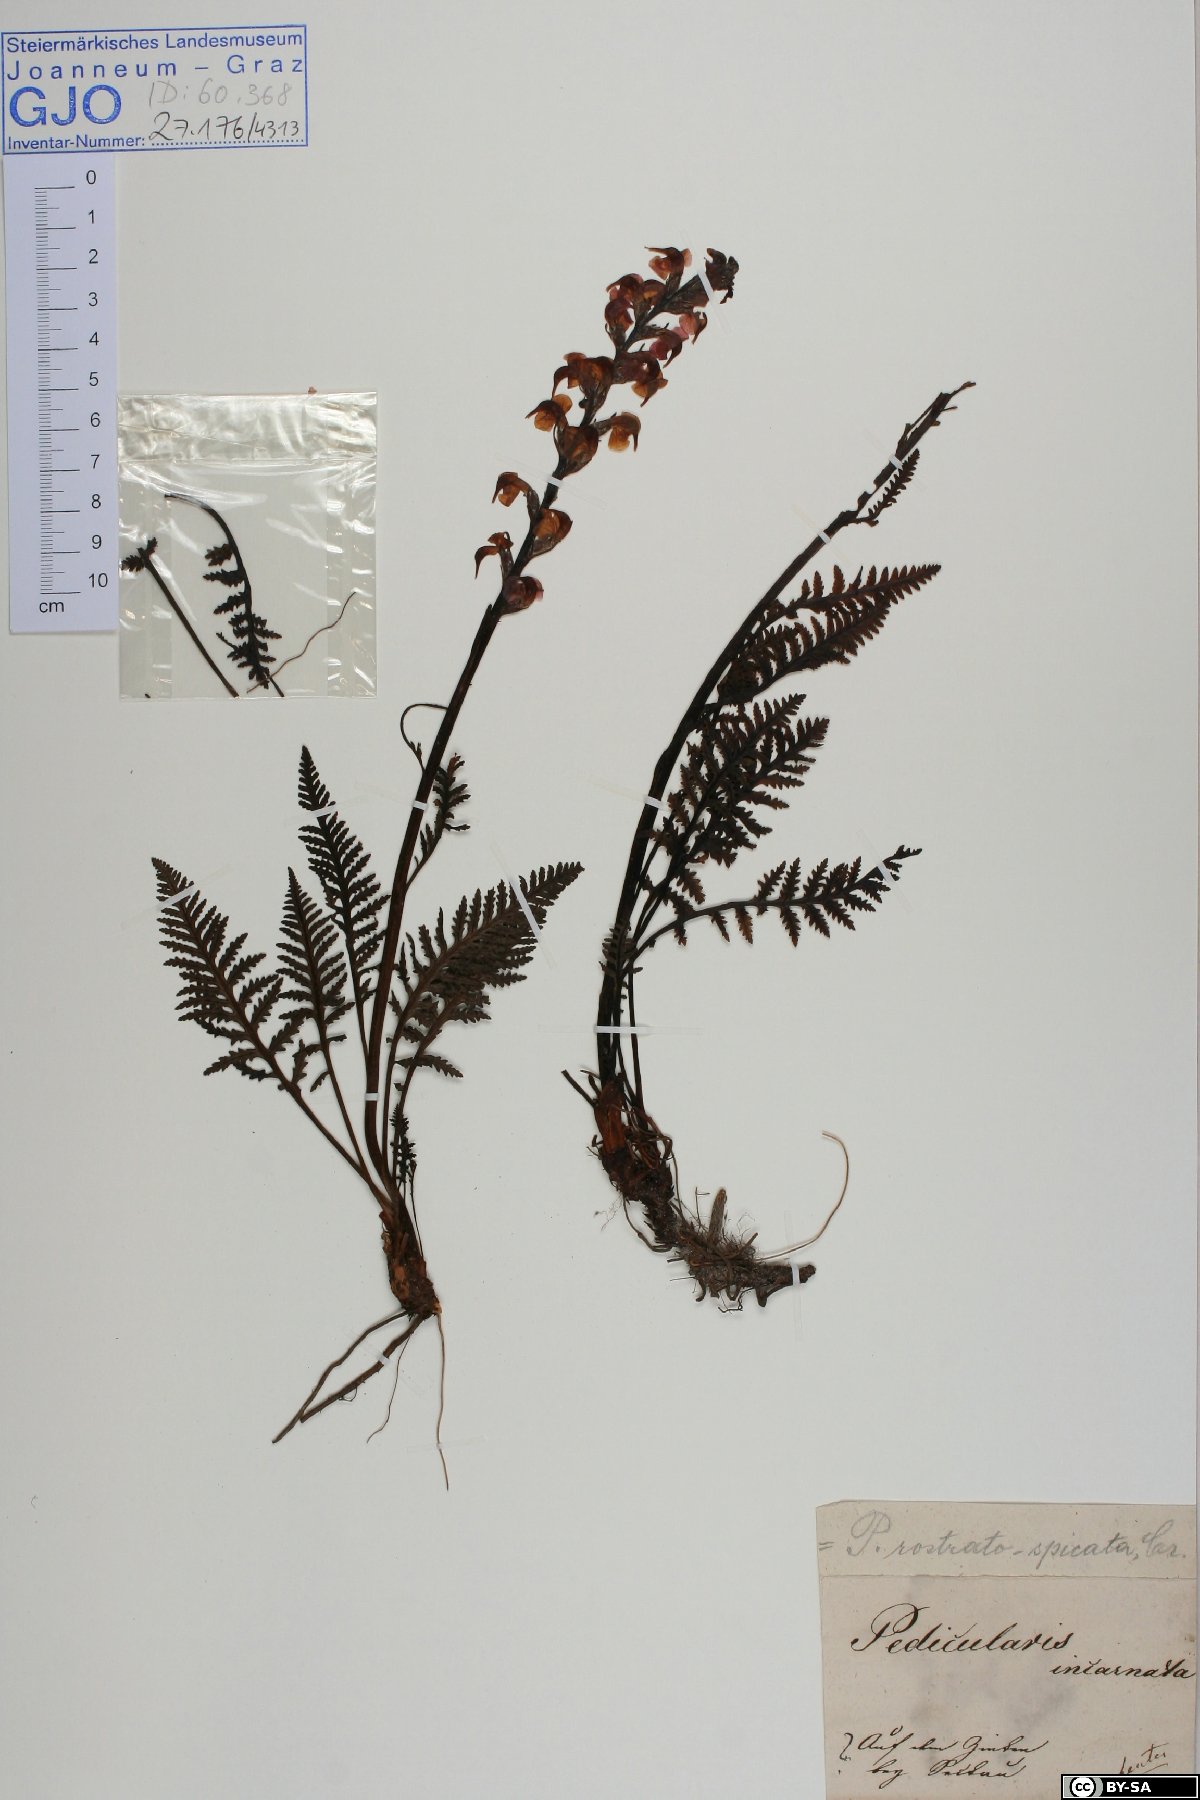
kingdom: Plantae
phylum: Tracheophyta
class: Magnoliopsida
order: Lamiales
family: Orobanchaceae
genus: Pedicularis
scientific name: Pedicularis rostratospicata
